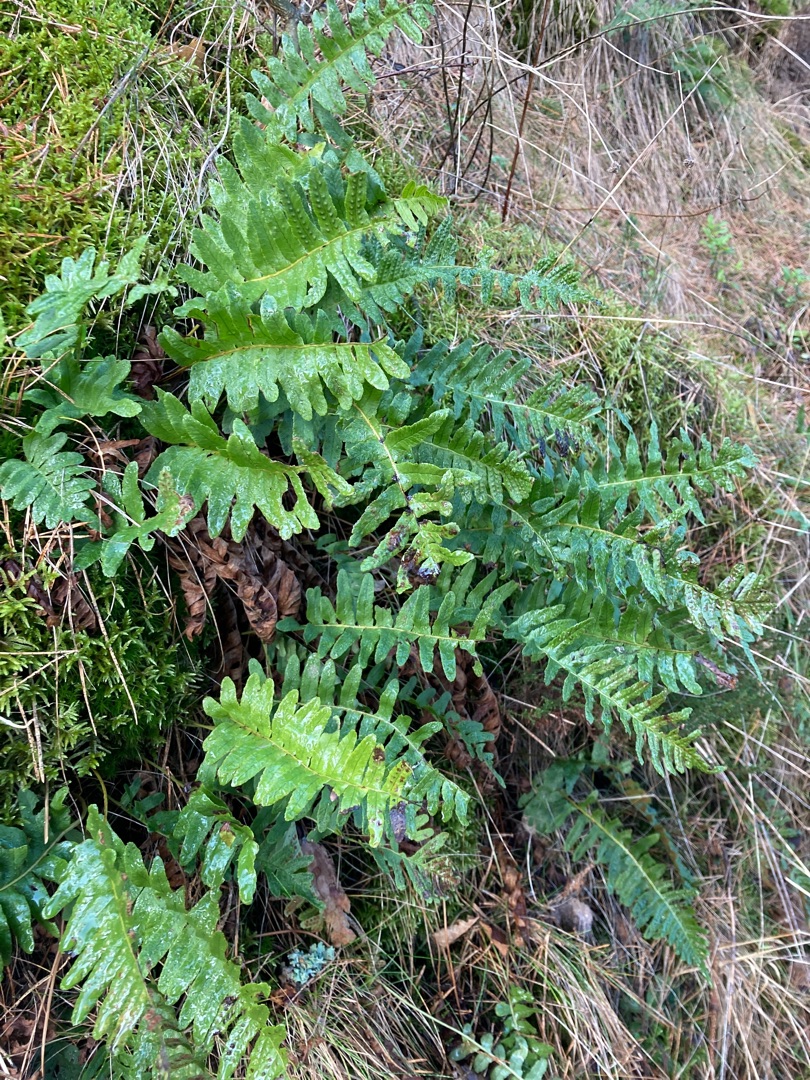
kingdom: Plantae
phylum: Tracheophyta
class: Polypodiopsida
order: Polypodiales
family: Polypodiaceae
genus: Polypodium
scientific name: Polypodium vulgare
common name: Almindelig engelsød
